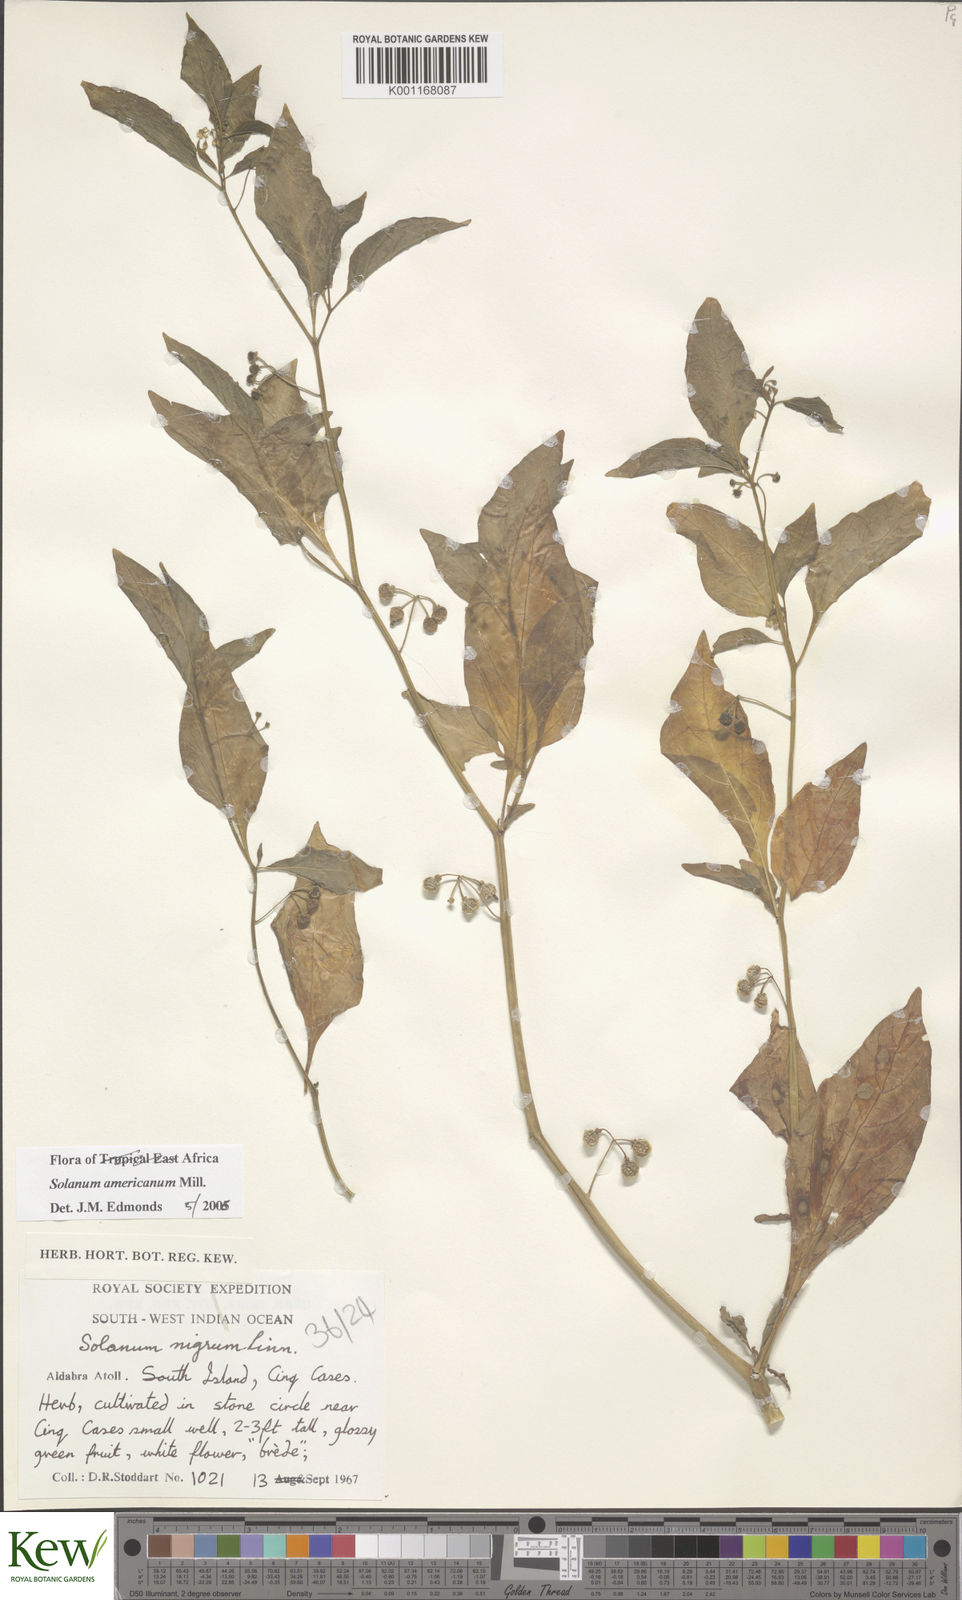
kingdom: Plantae
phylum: Tracheophyta
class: Magnoliopsida
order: Solanales
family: Solanaceae
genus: Solanum
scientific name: Solanum americanum
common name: American black nightshade
